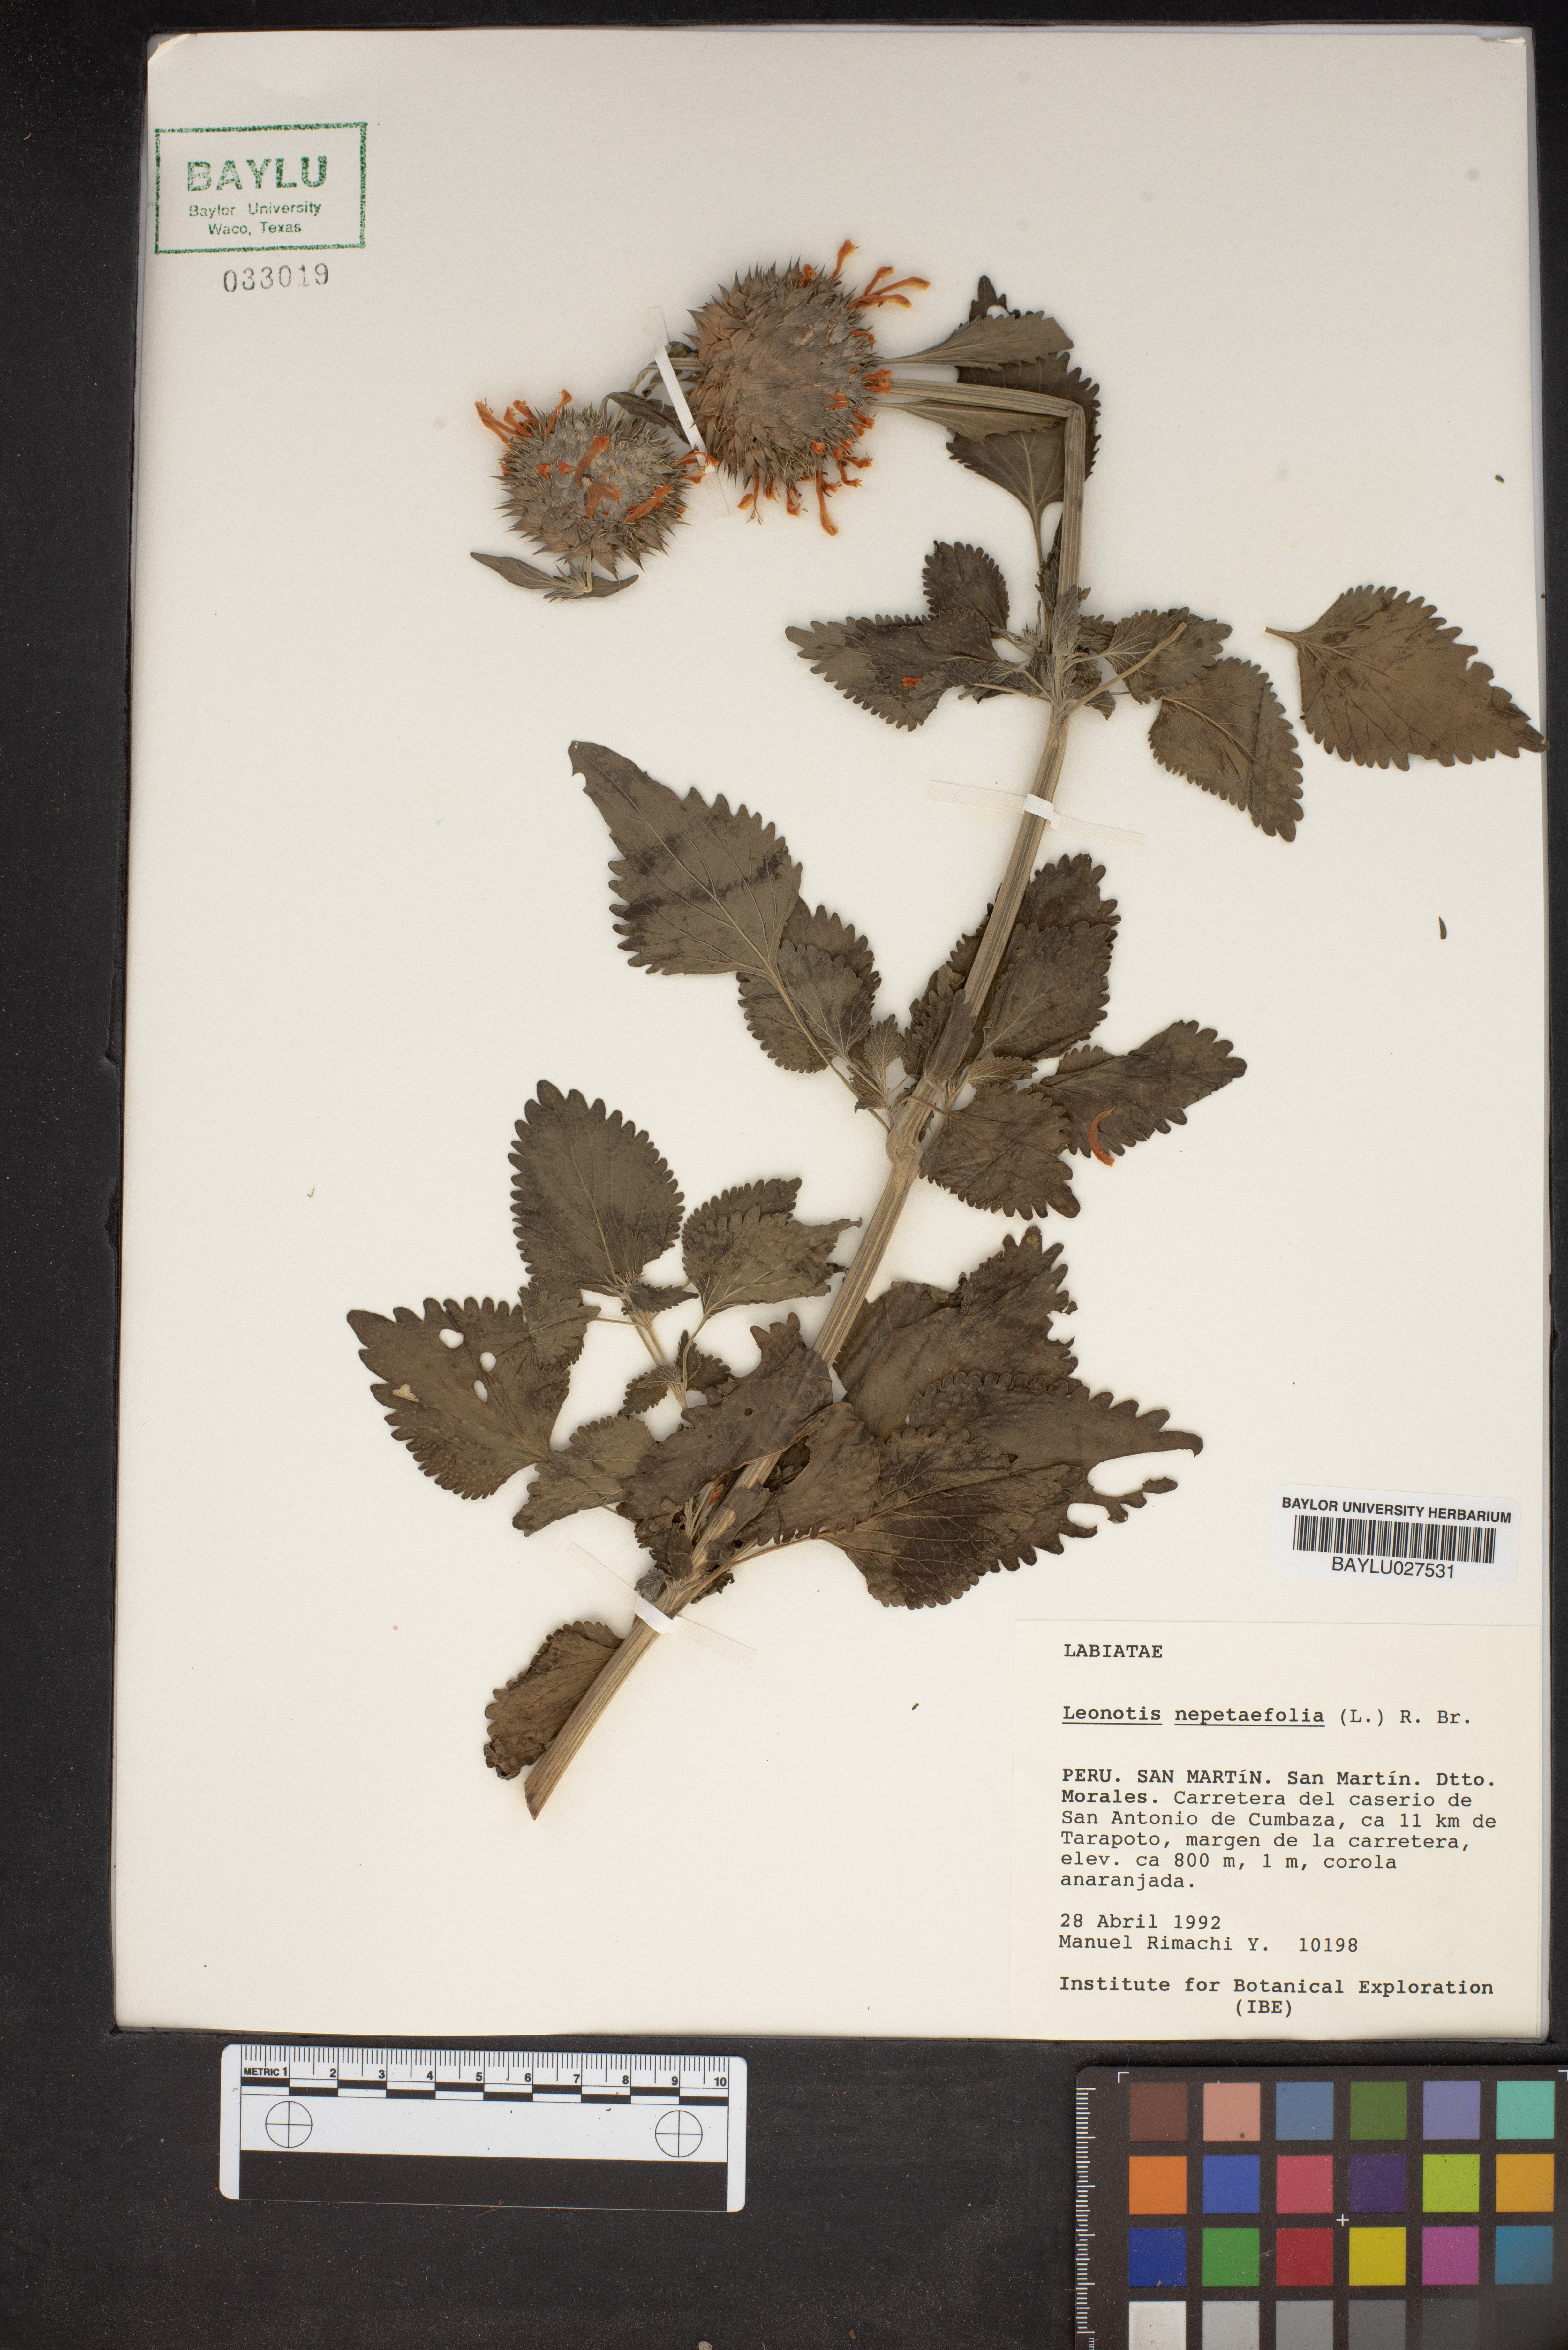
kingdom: Plantae
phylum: Tracheophyta
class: Magnoliopsida
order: Lamiales
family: Lamiaceae
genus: Leonotis
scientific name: Leonotis nepetifolia
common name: Christmas candlestick
